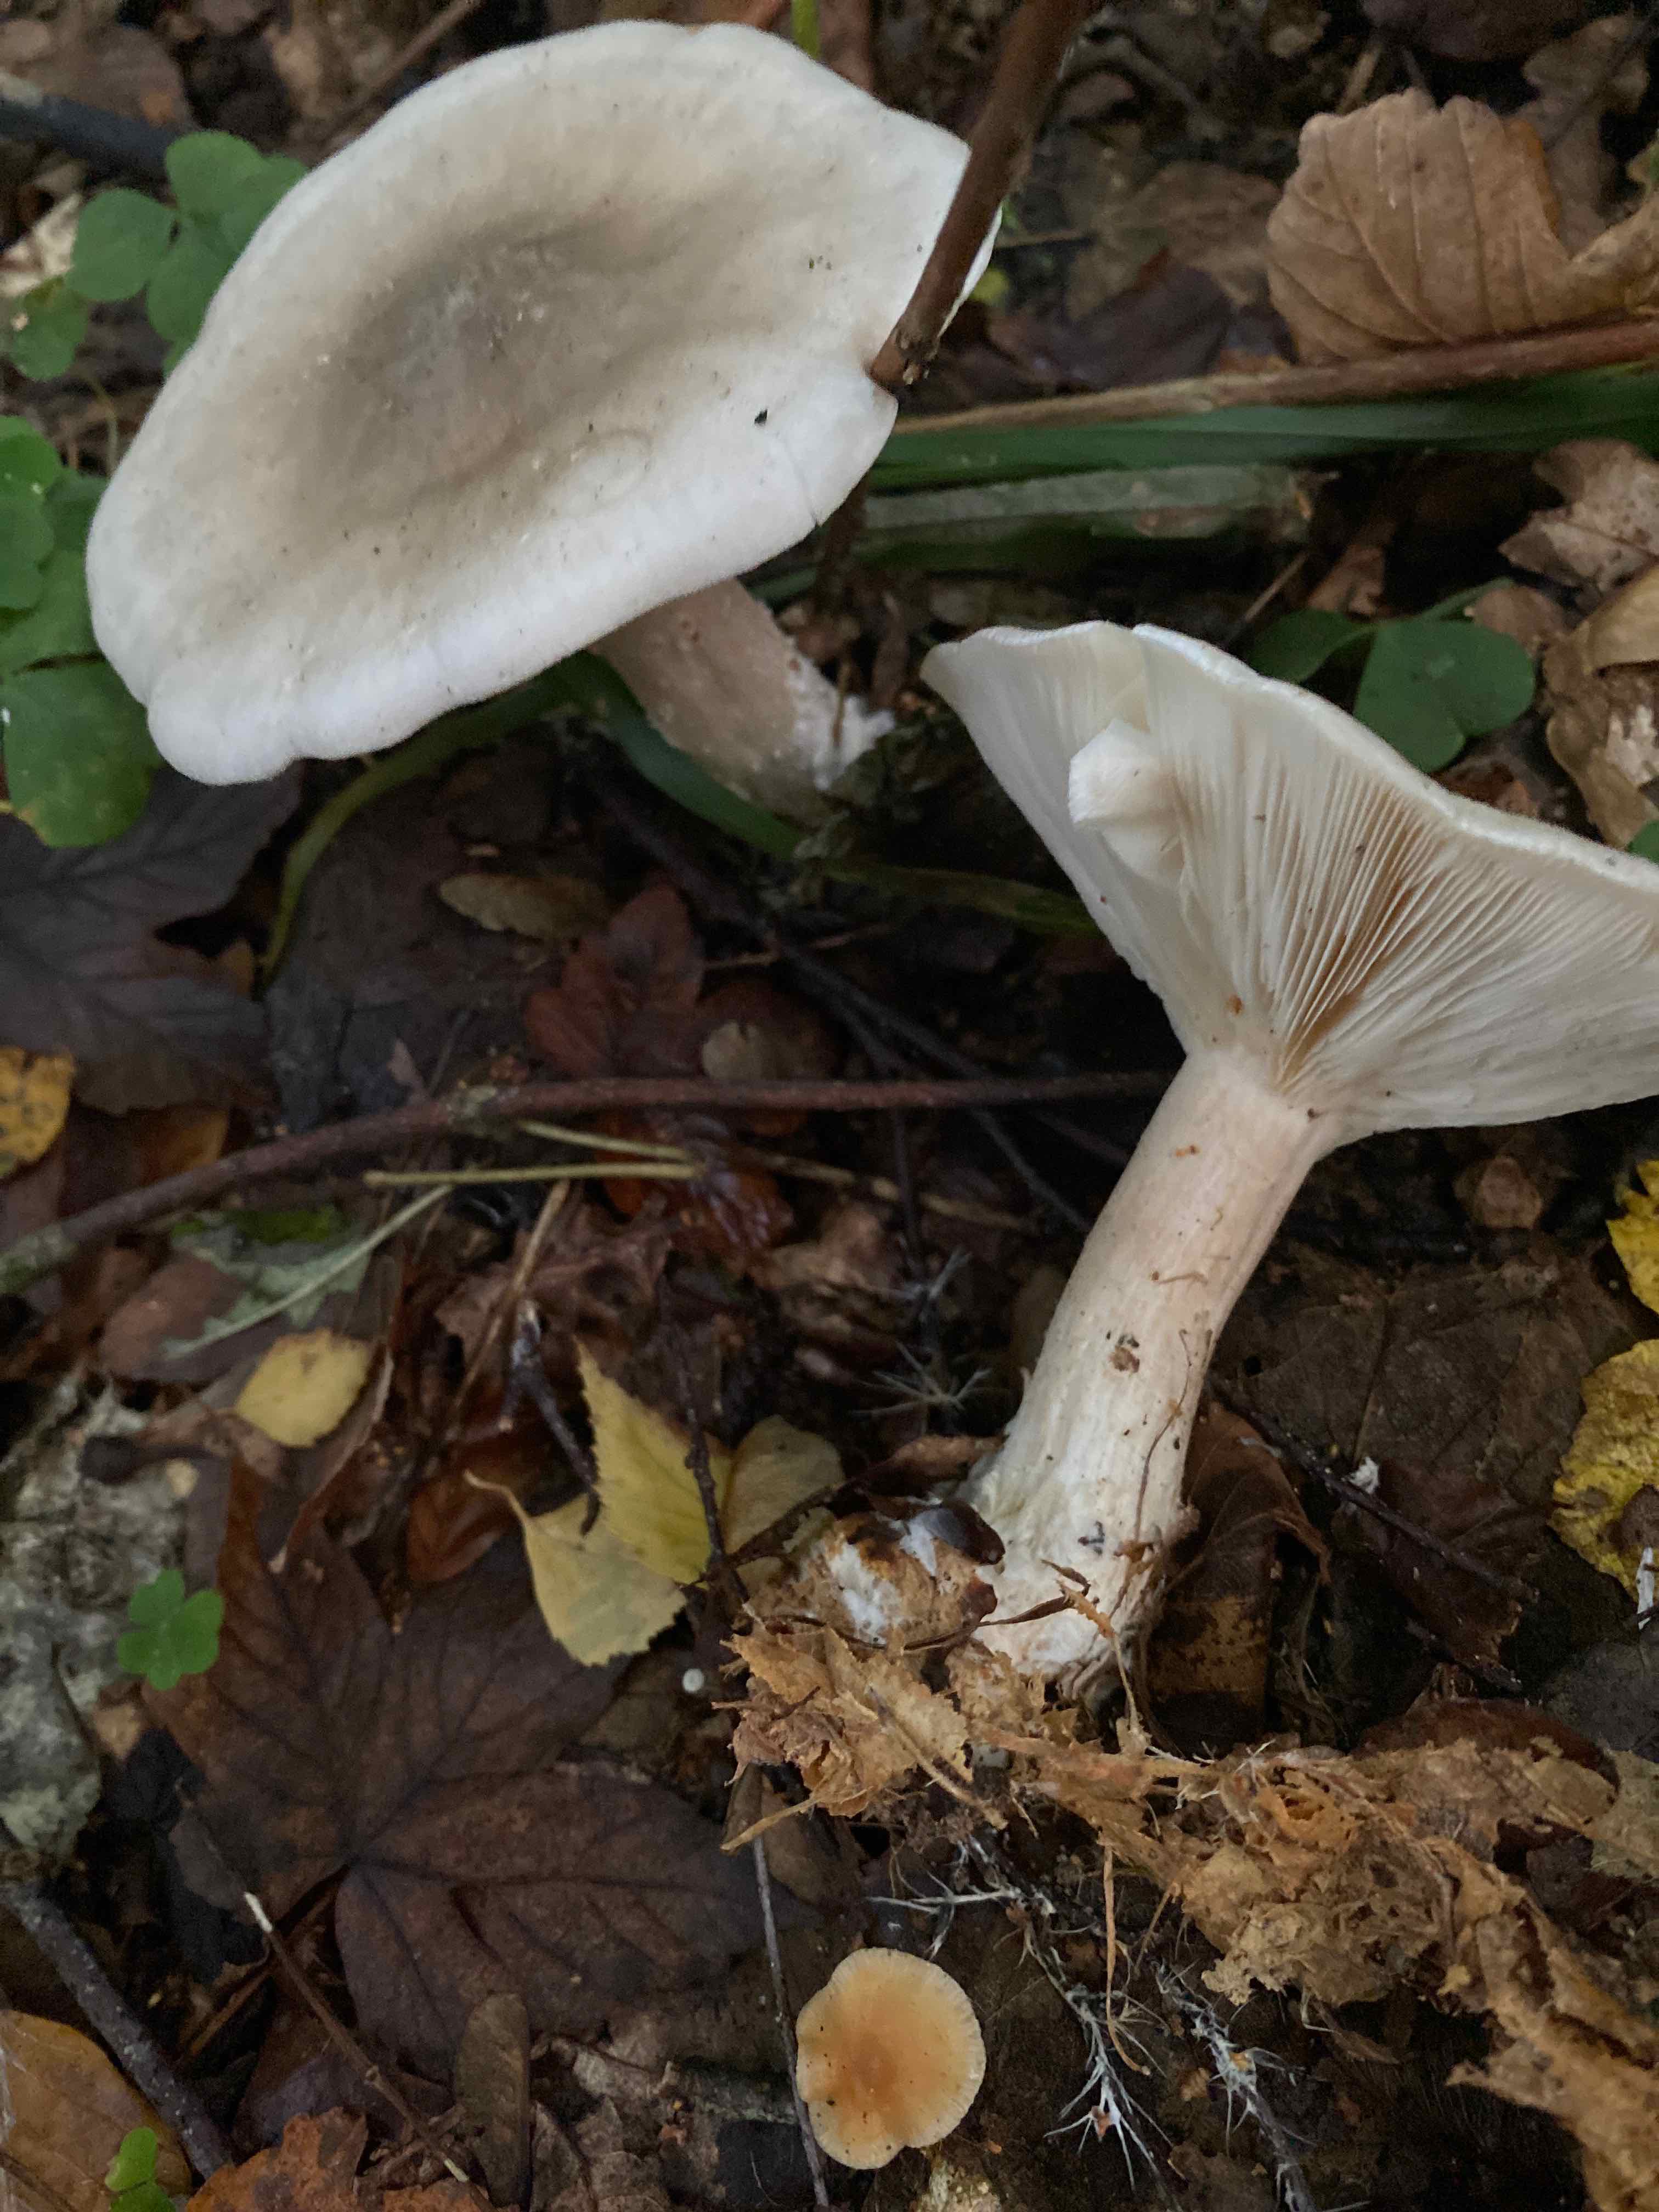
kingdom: Fungi
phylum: Basidiomycota
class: Agaricomycetes
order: Agaricales
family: Tricholomataceae
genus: Clitocybe
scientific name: Clitocybe nebularis
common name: tåge-tragthat
